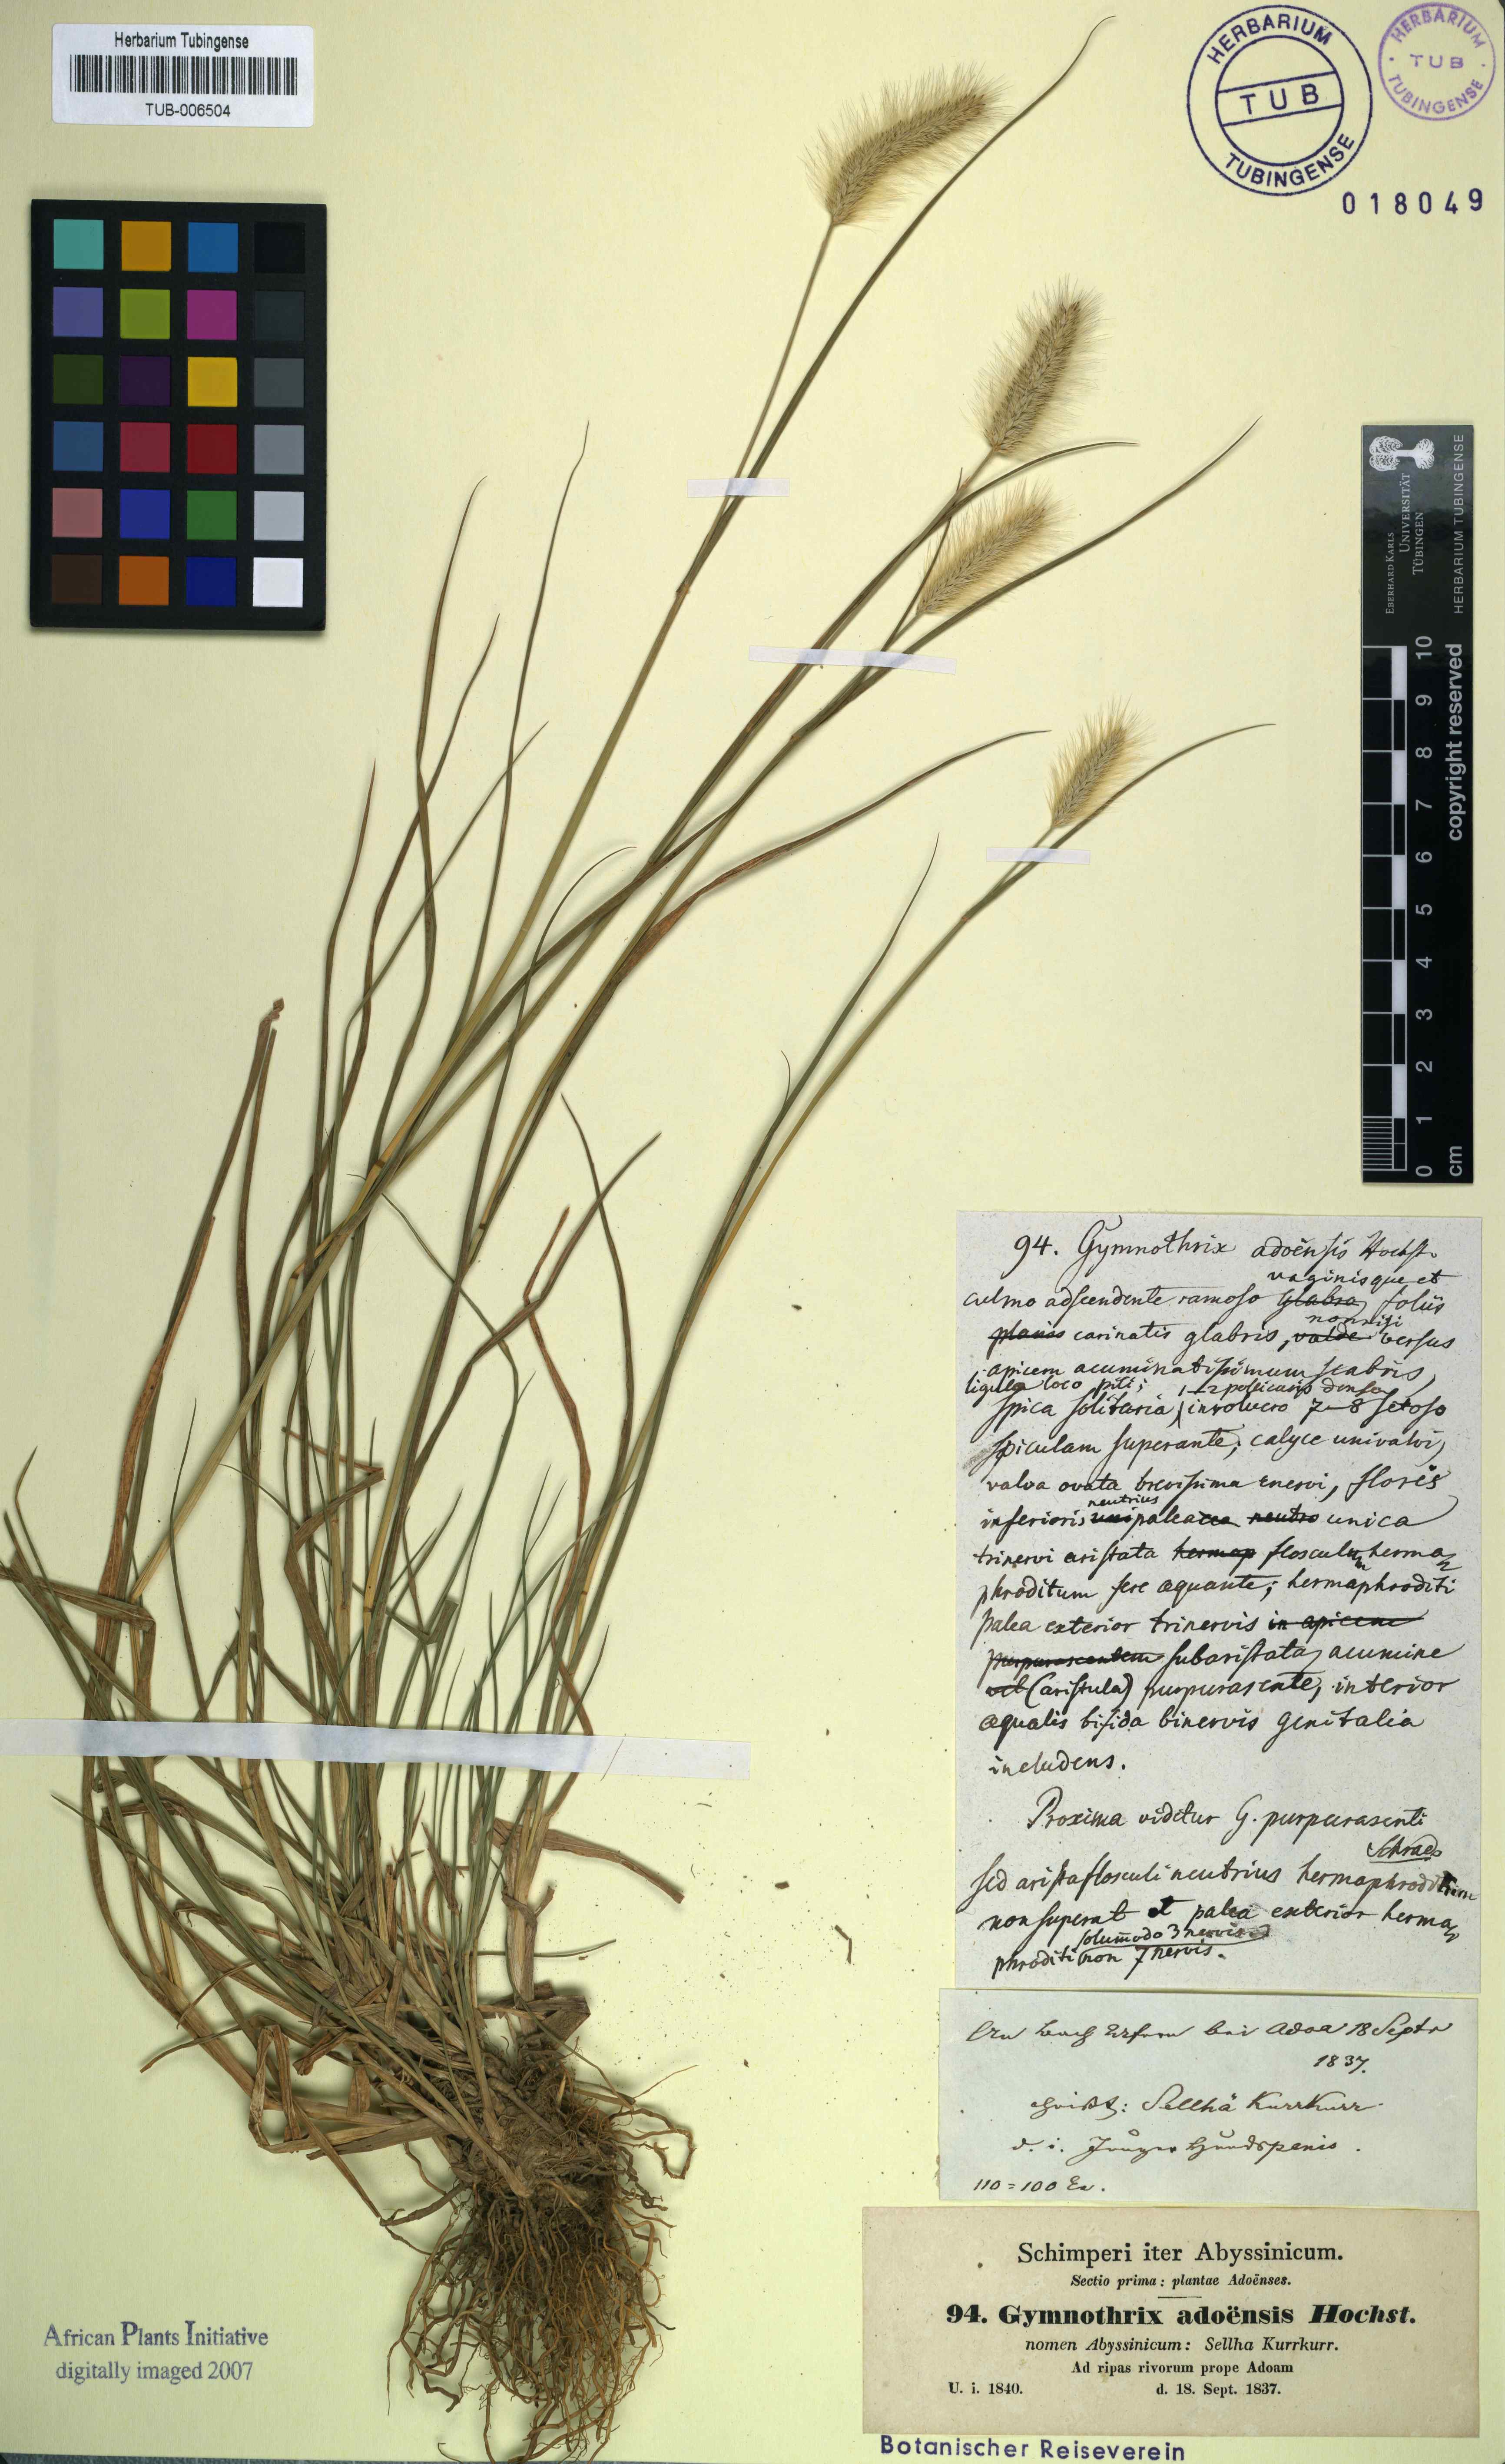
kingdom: Plantae
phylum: Tracheophyta
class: Liliopsida
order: Poales
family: Poaceae
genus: Cenchrus
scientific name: Cenchrus petiolaris
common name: Grass
